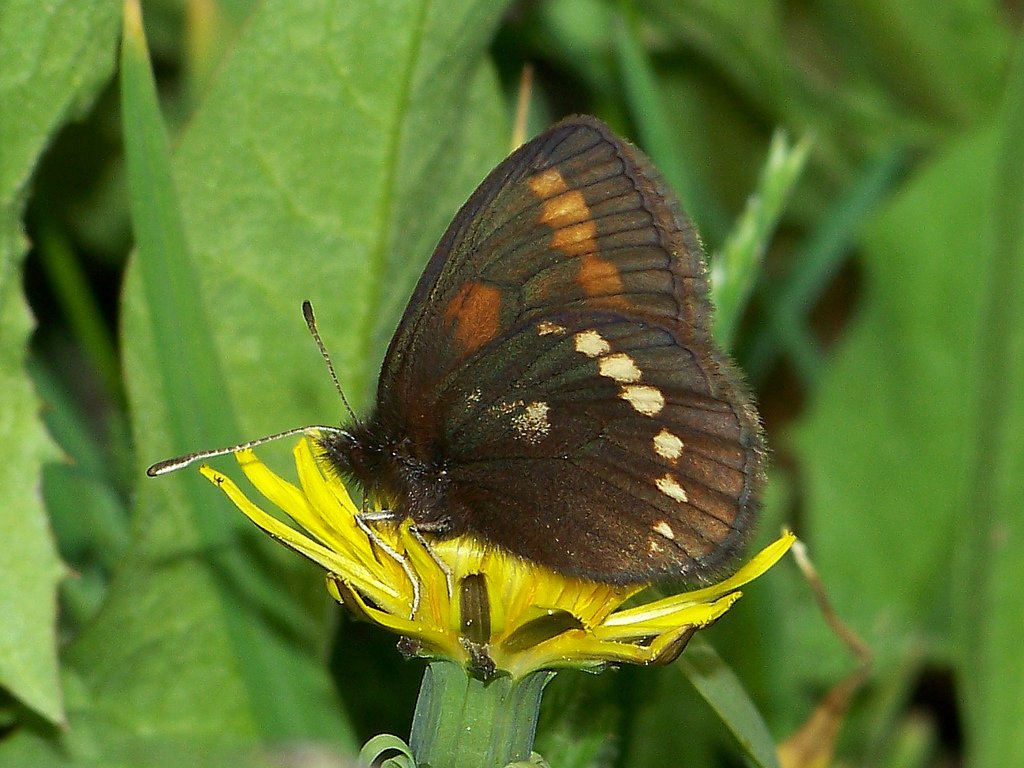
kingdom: Animalia
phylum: Arthropoda
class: Insecta
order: Lepidoptera
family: Nymphalidae
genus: Erebia
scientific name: Erebia pawloskii
